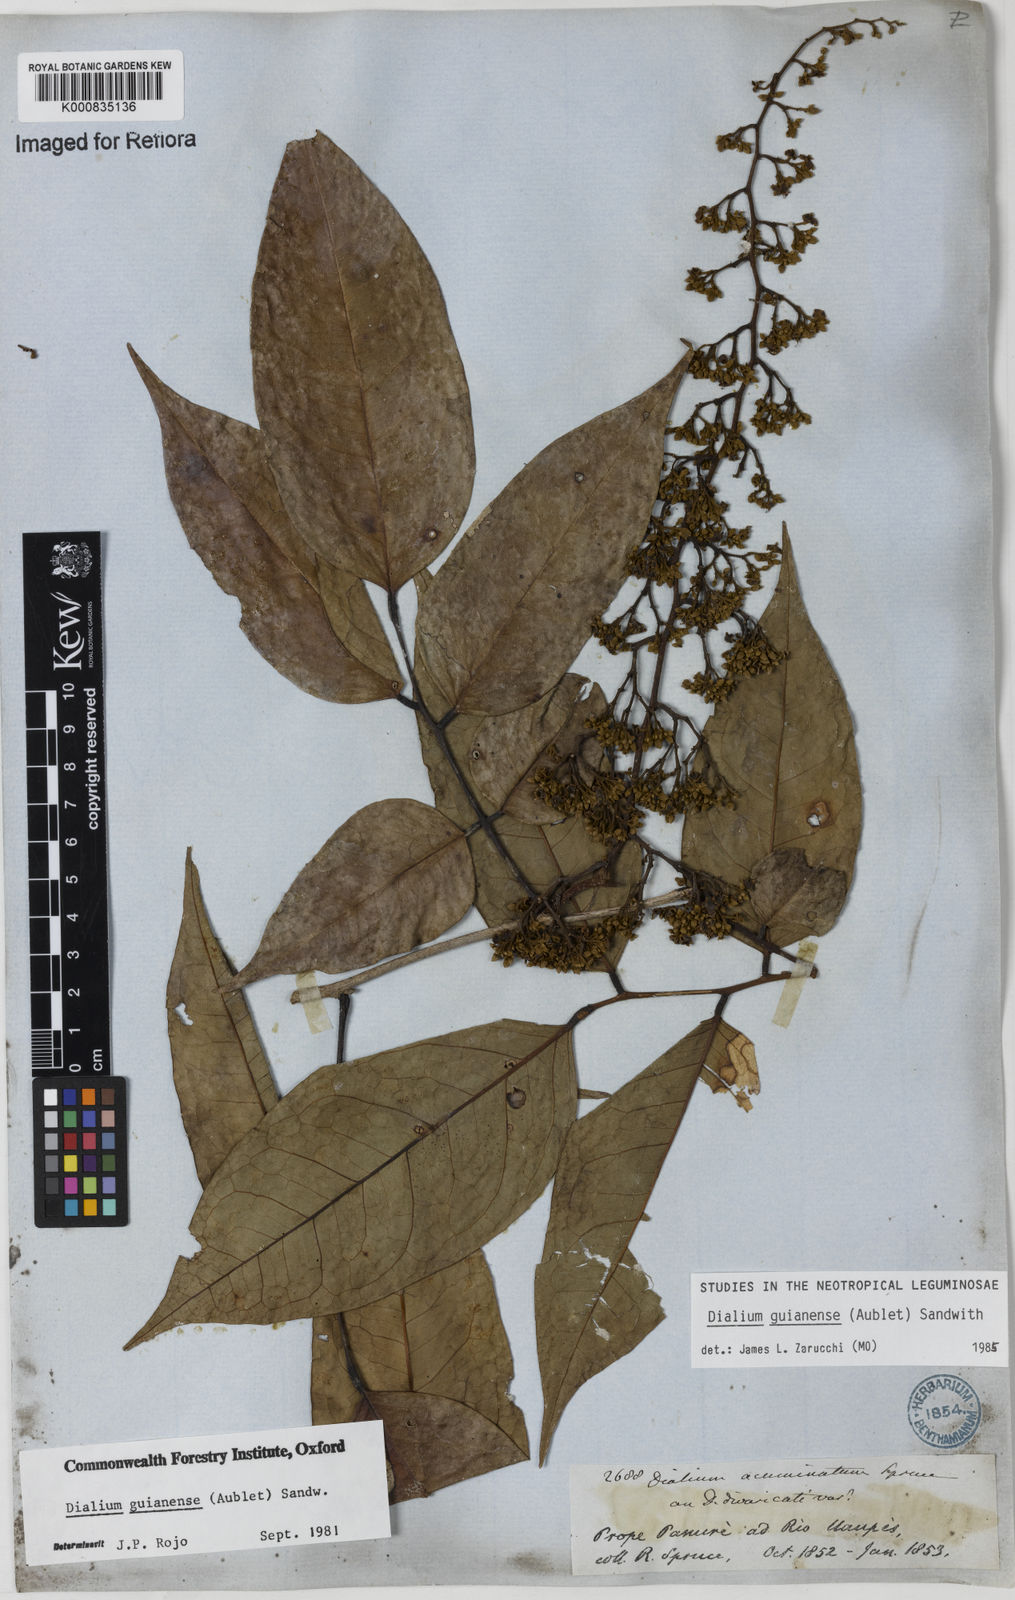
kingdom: Plantae
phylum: Tracheophyta
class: Magnoliopsida
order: Fabales
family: Fabaceae
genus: Dialium
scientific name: Dialium zenkeri
